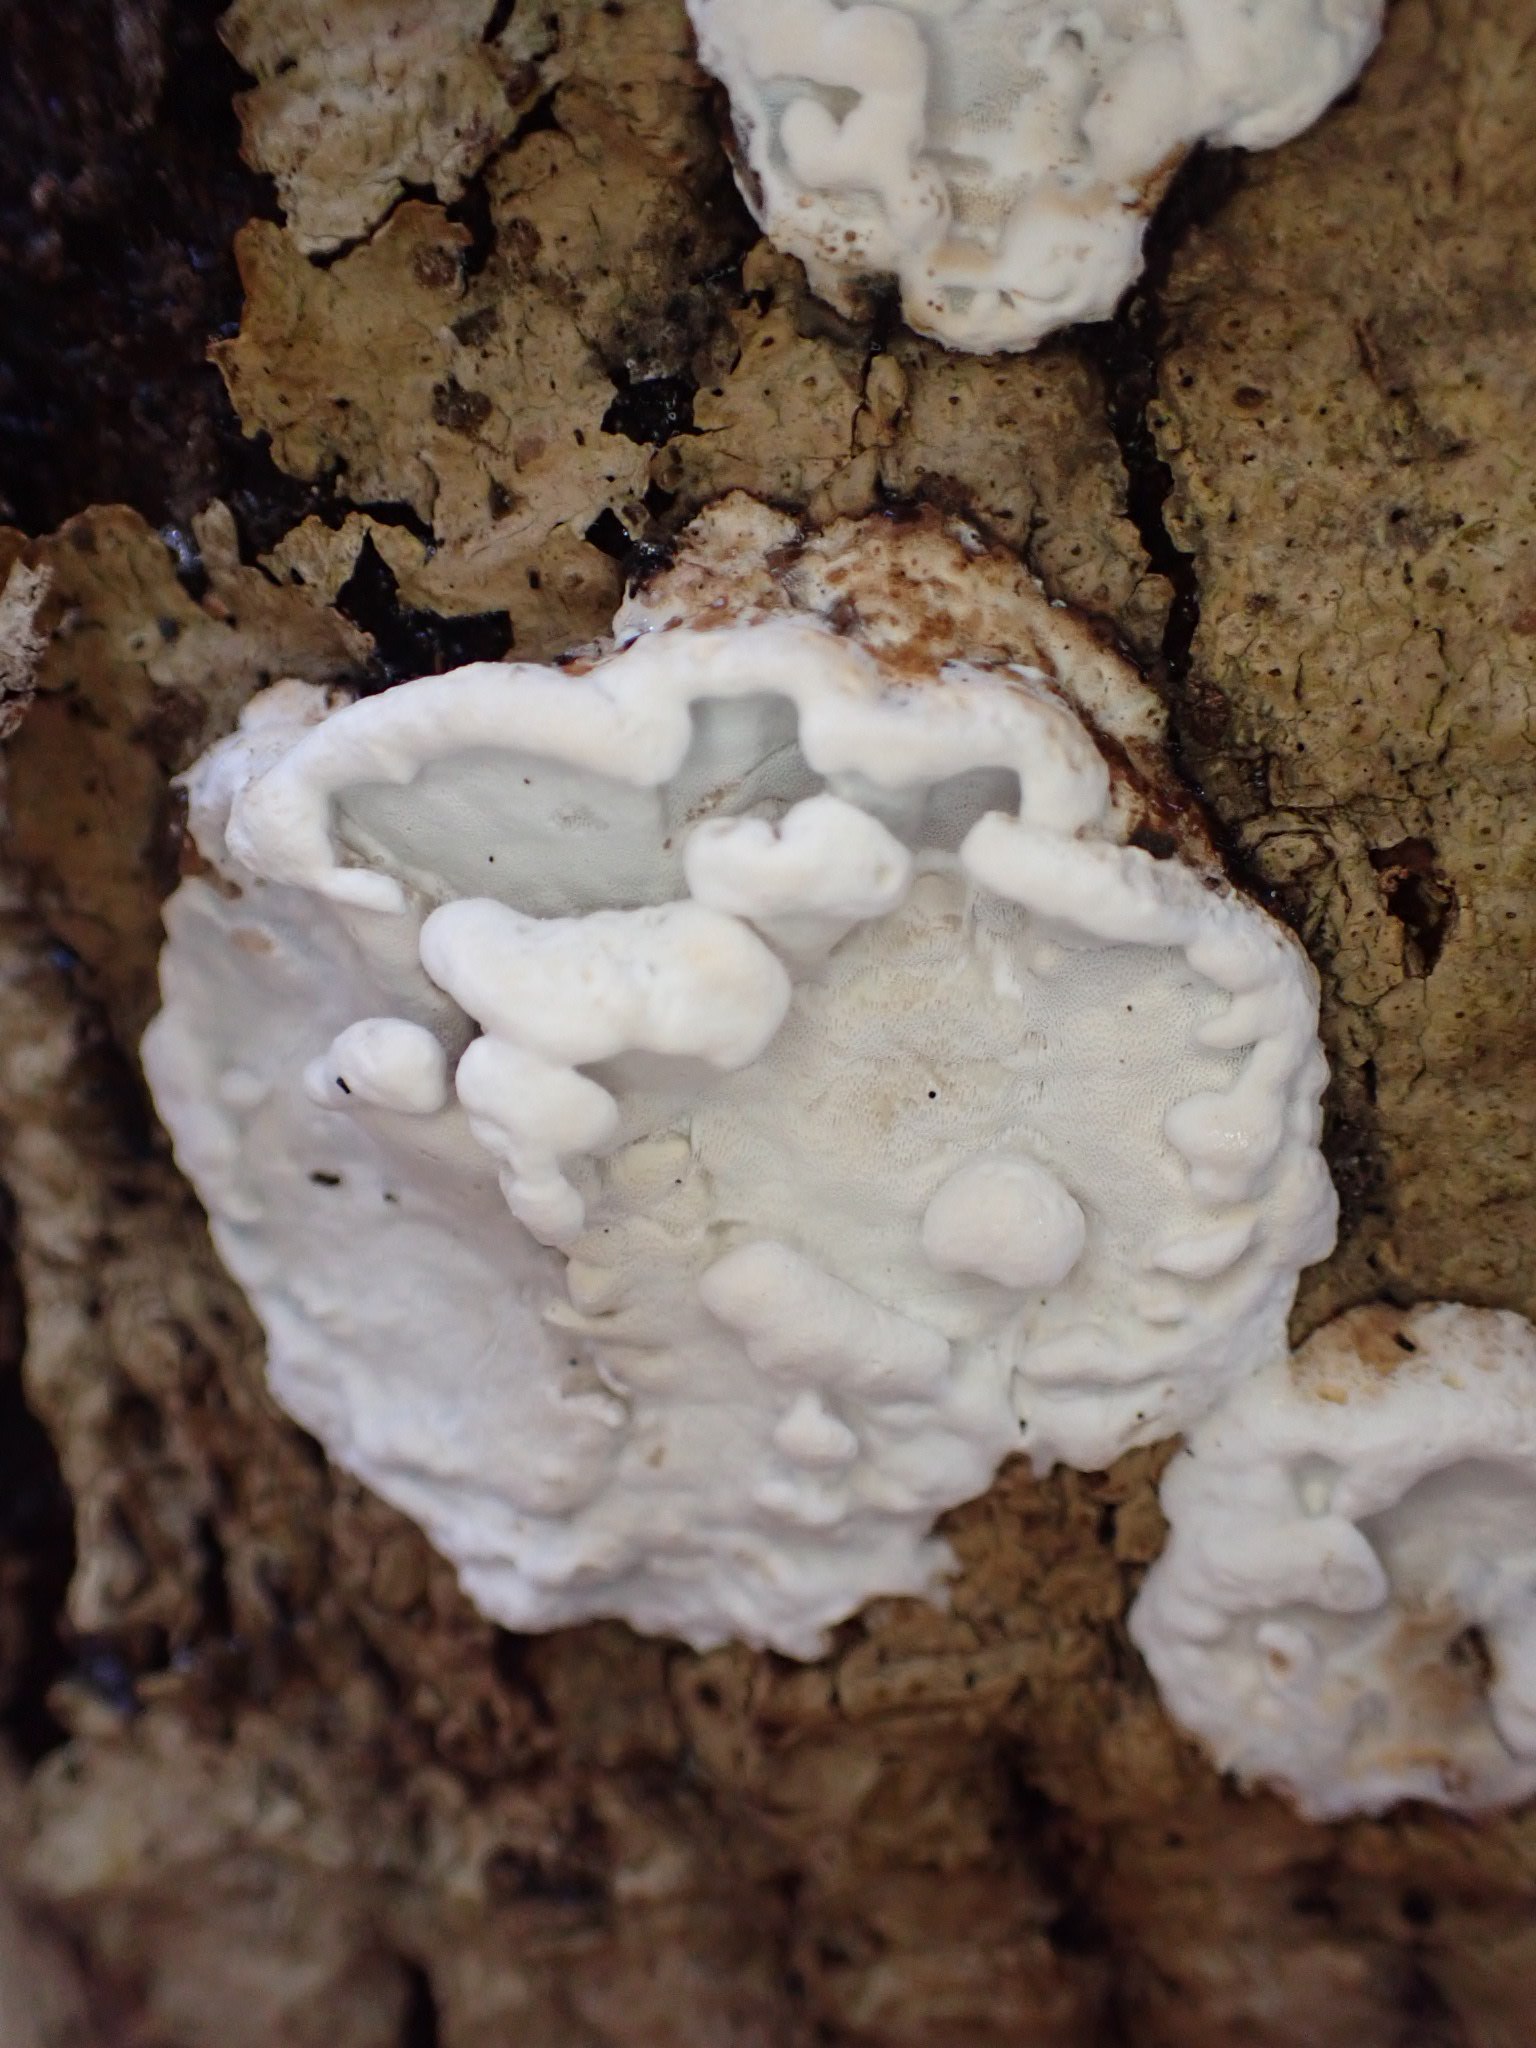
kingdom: Fungi
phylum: Basidiomycota
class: Agaricomycetes
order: Polyporales
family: Incrustoporiaceae
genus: Skeletocutis
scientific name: Skeletocutis nemoralis
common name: stor krystalporesvamp
